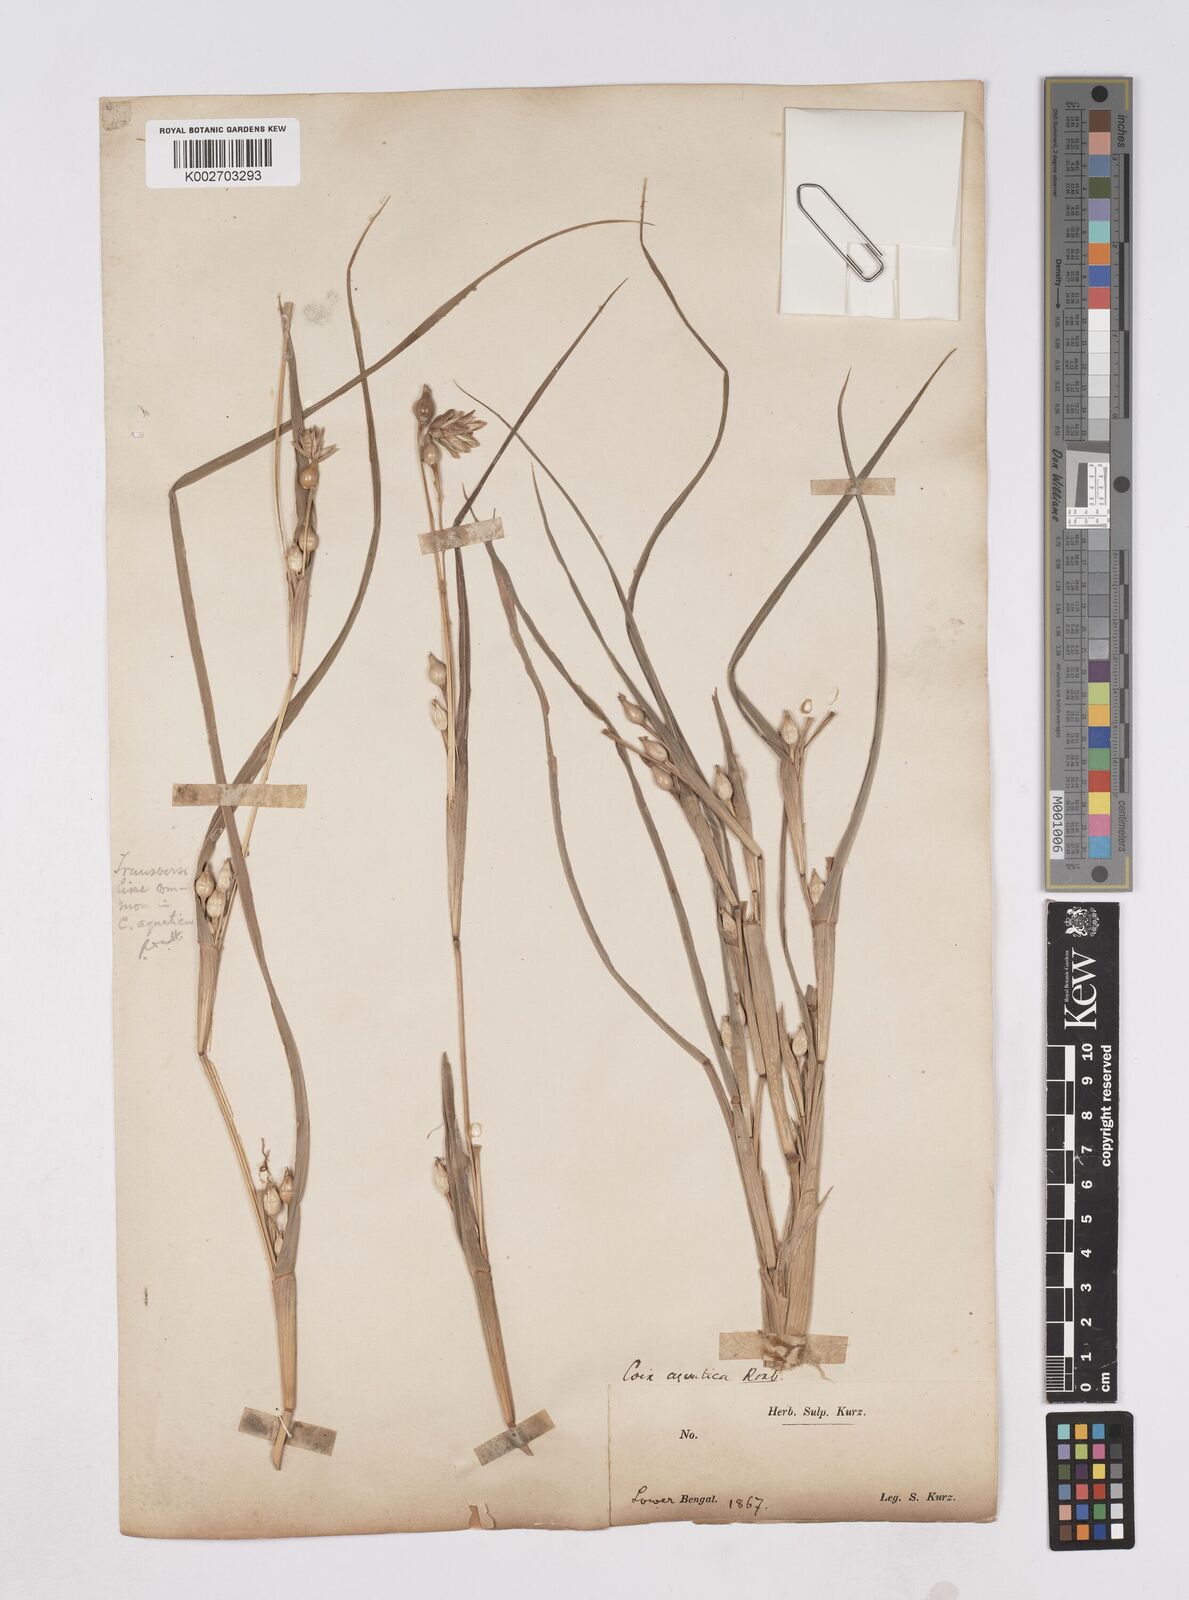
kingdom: Plantae
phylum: Tracheophyta
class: Liliopsida
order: Poales
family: Poaceae
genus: Coix
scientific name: Coix aquatica
